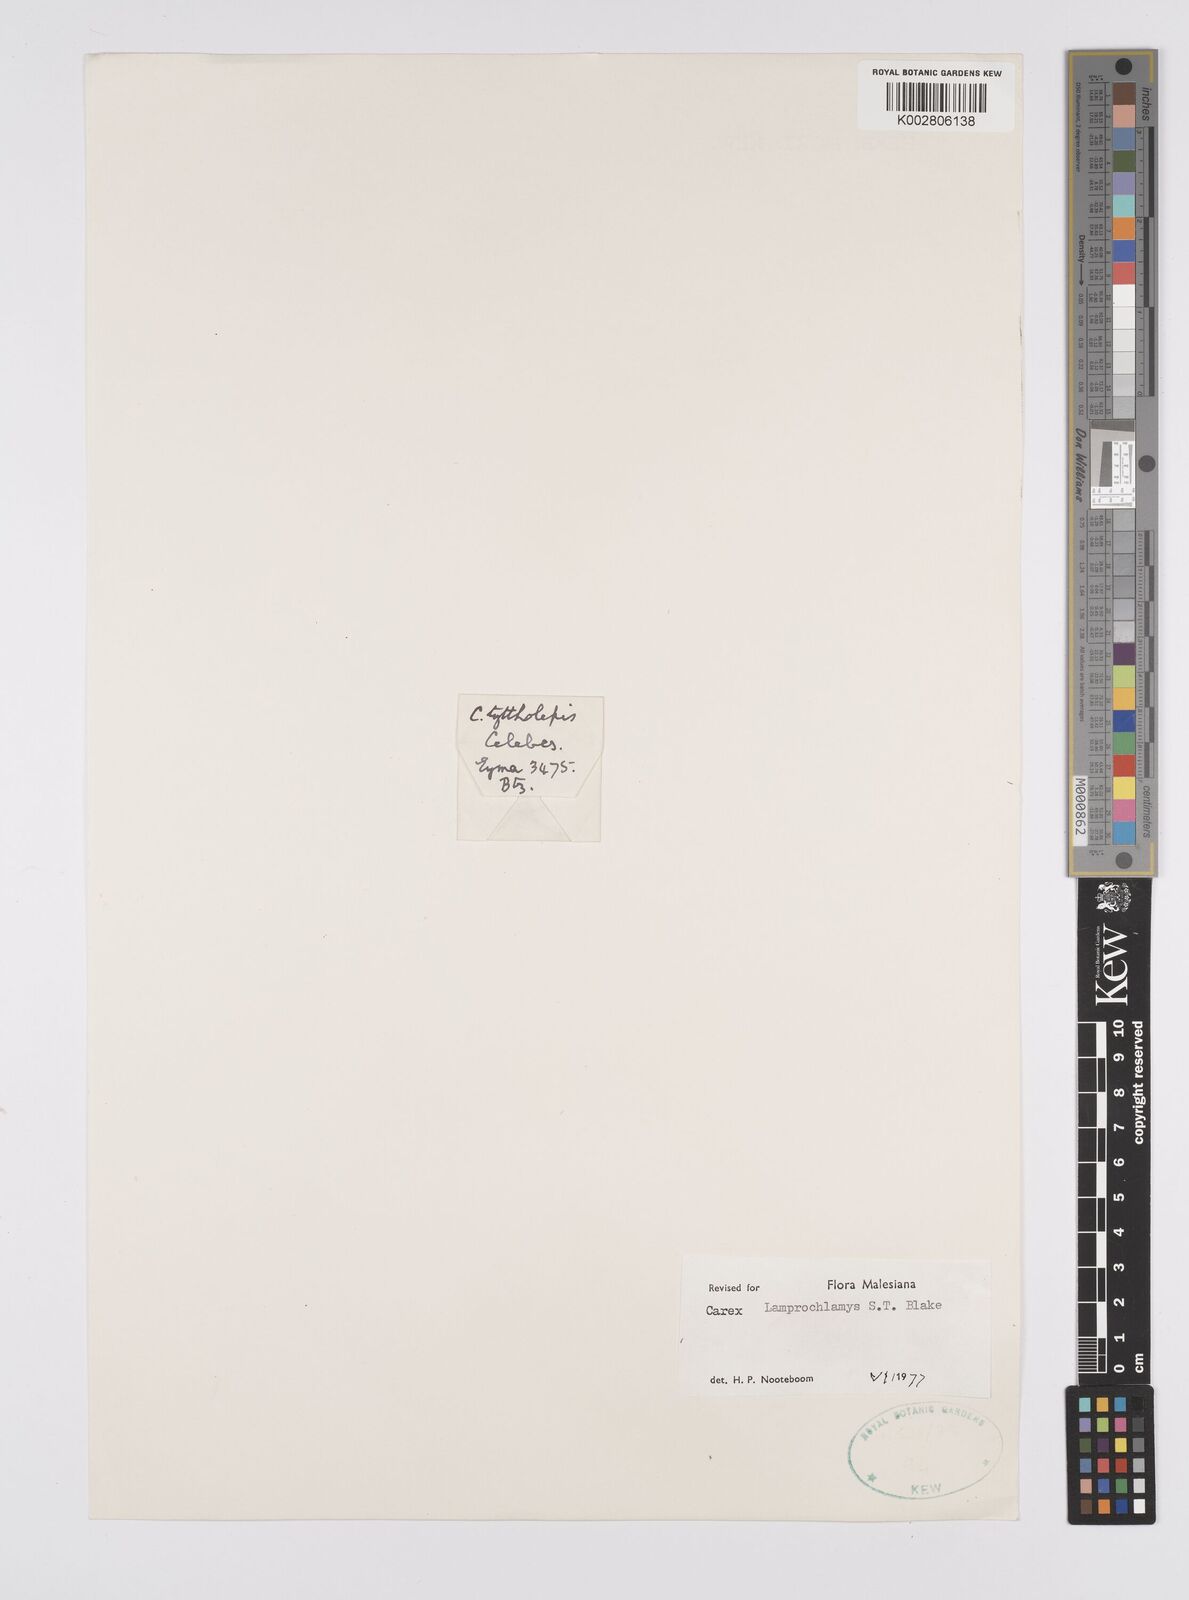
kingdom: Plantae
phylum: Tracheophyta
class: Liliopsida
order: Poales
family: Cyperaceae
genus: Carex
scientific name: Carex lamprochlamys
